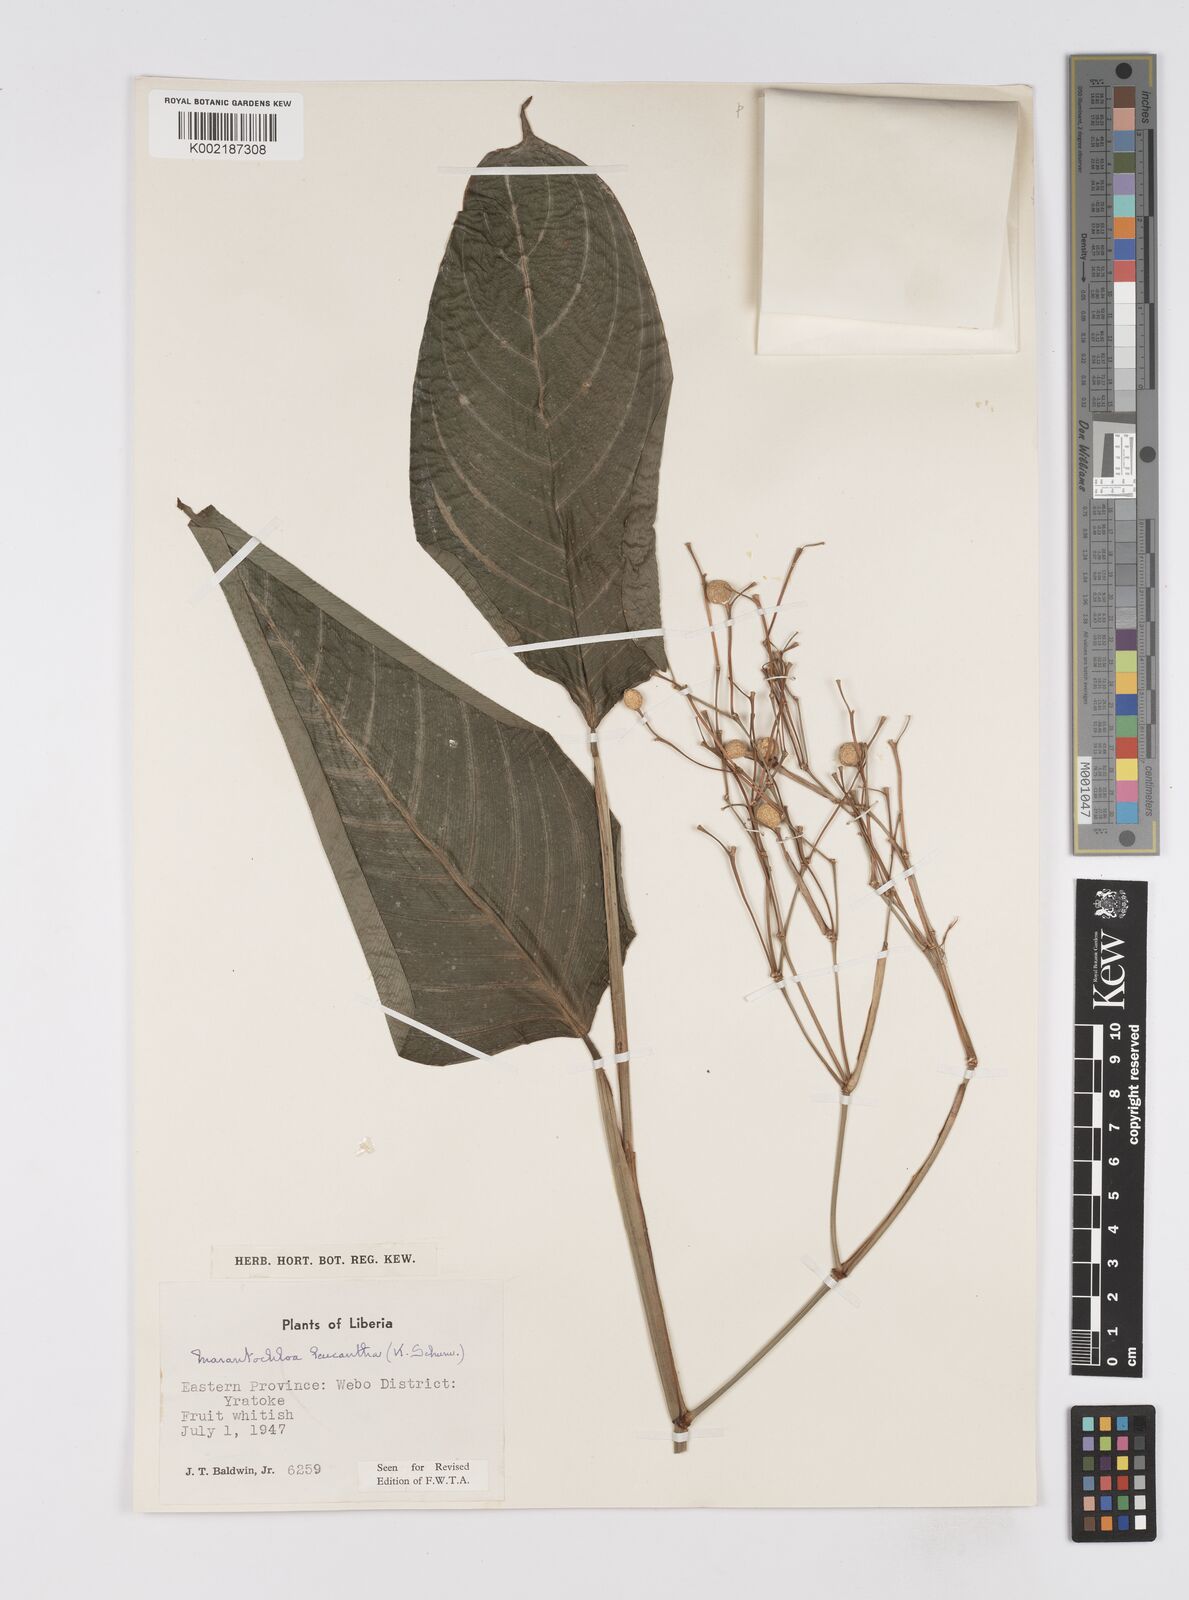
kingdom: Plantae
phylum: Tracheophyta
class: Liliopsida
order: Zingiberales
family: Marantaceae
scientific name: Marantaceae
